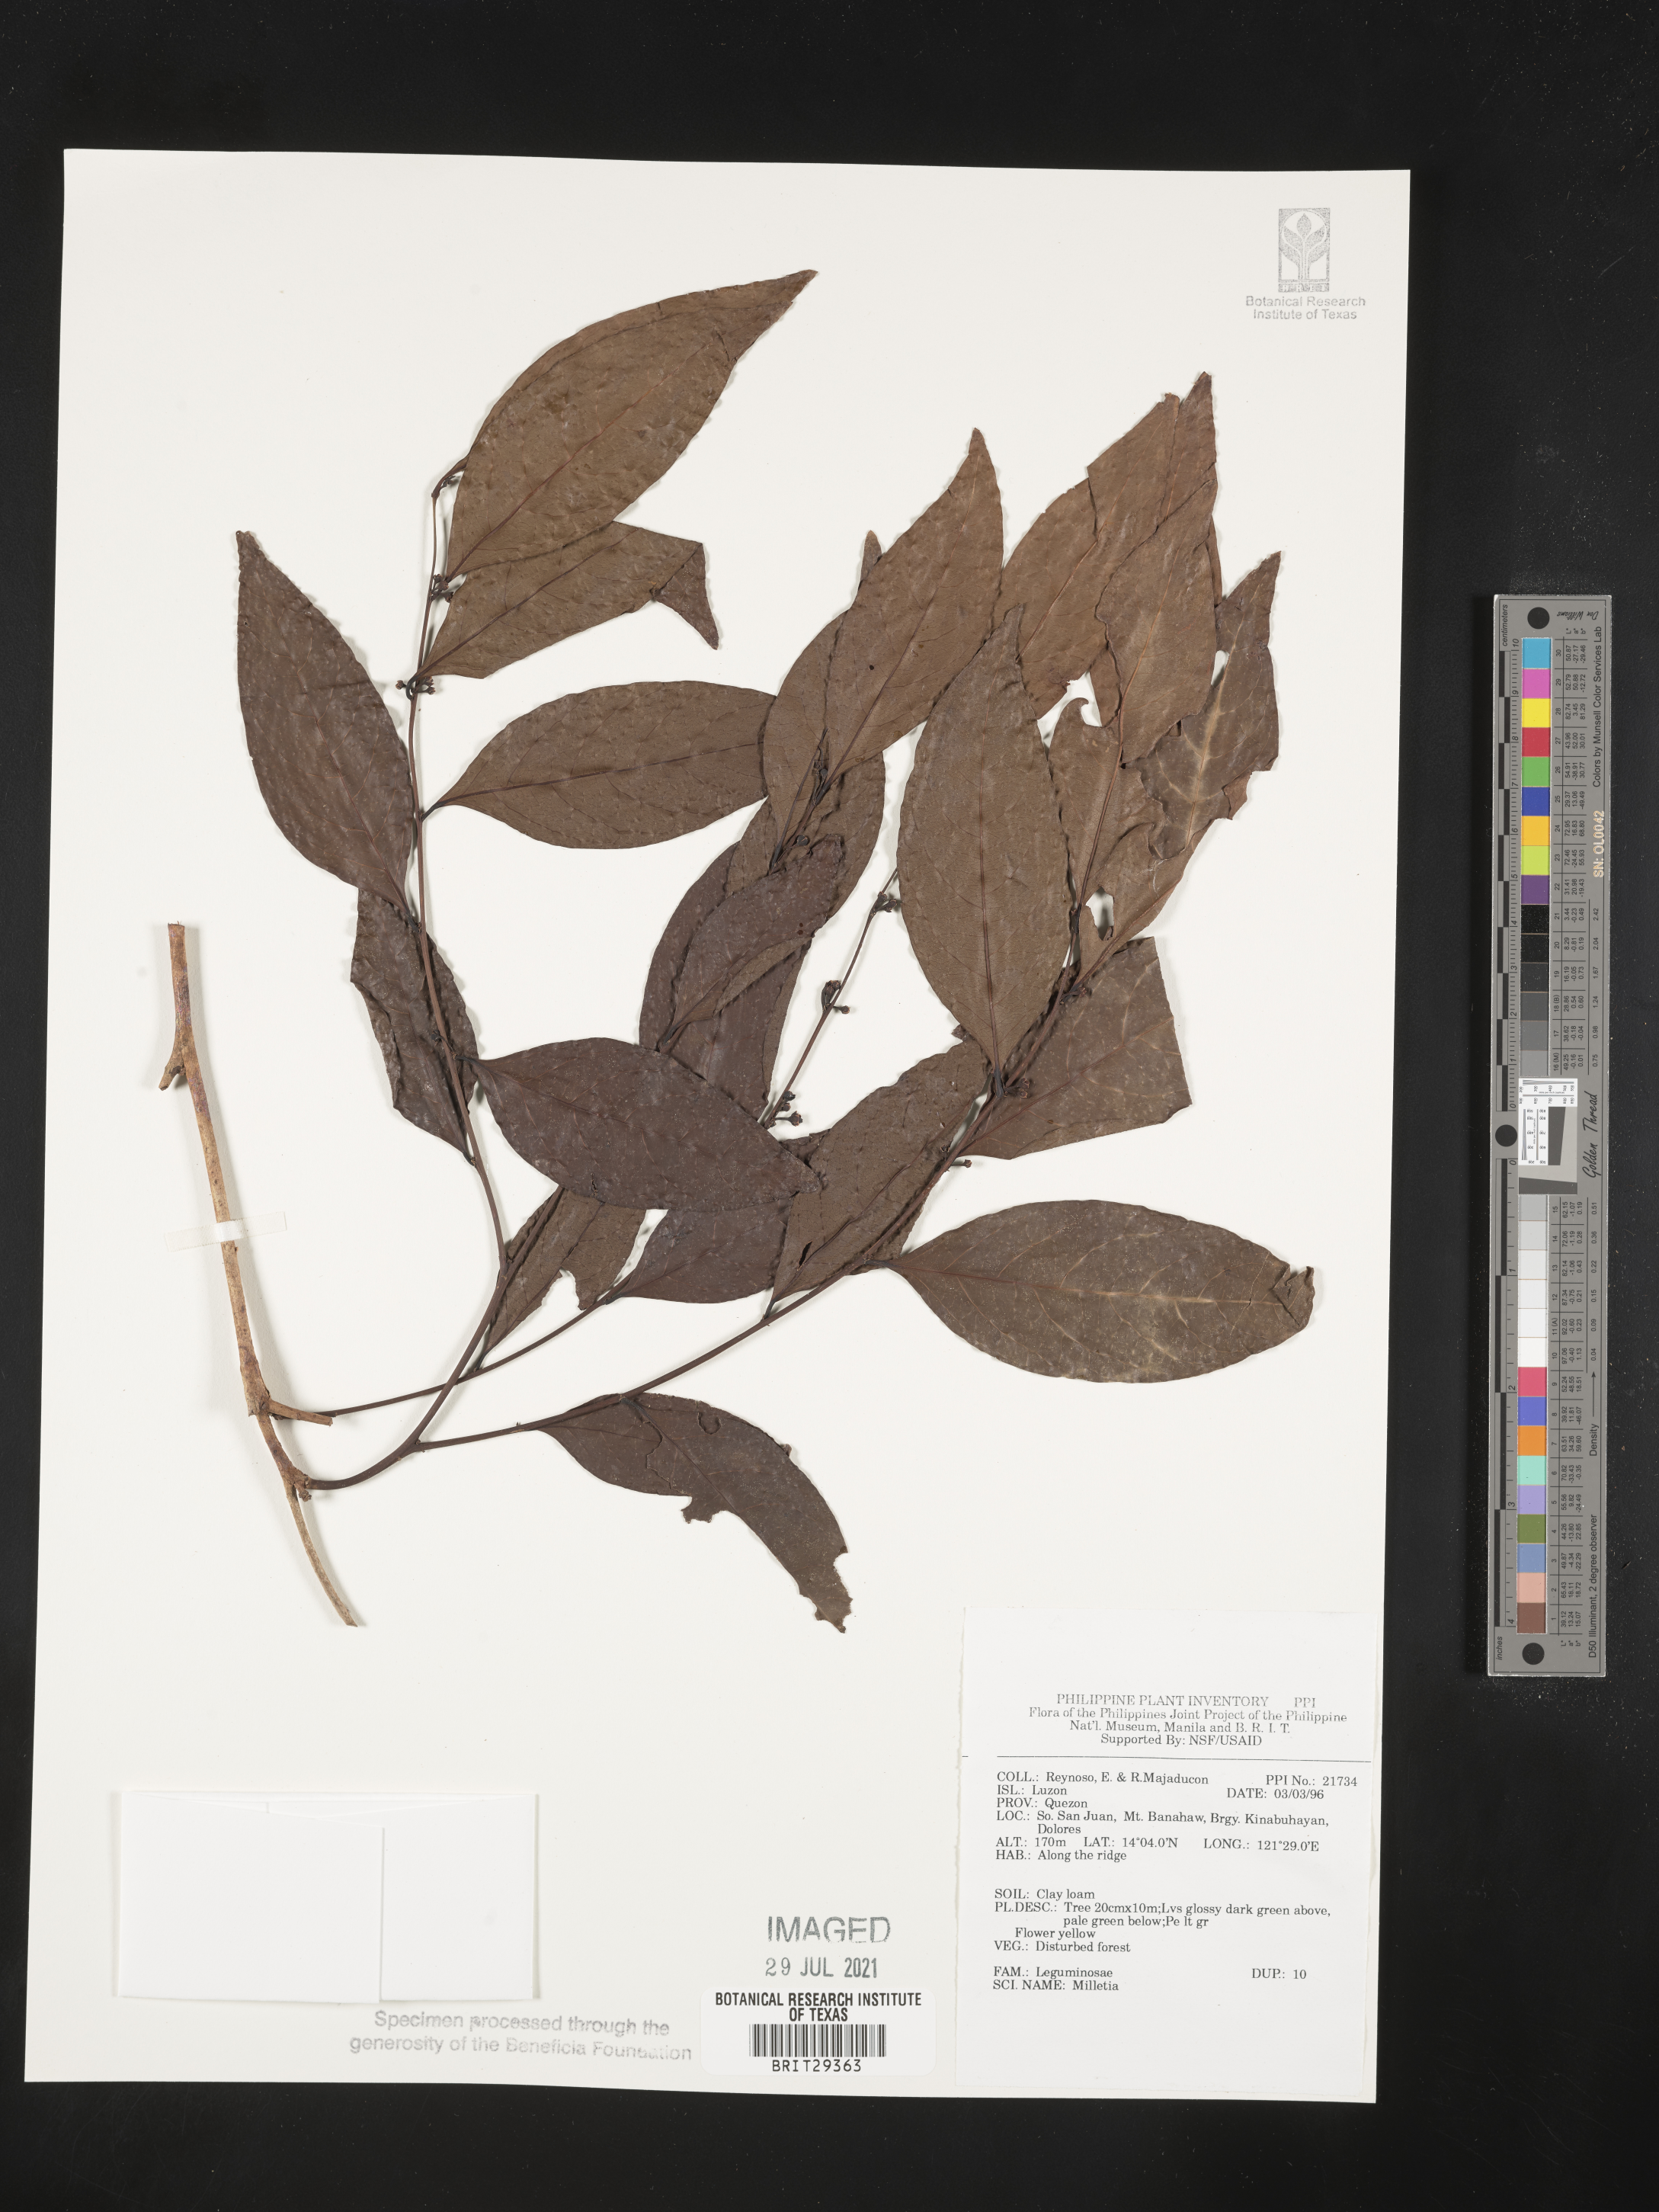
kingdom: Plantae
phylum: Tracheophyta
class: Magnoliopsida
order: Fabales
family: Fabaceae
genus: Millettia
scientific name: Millettia
